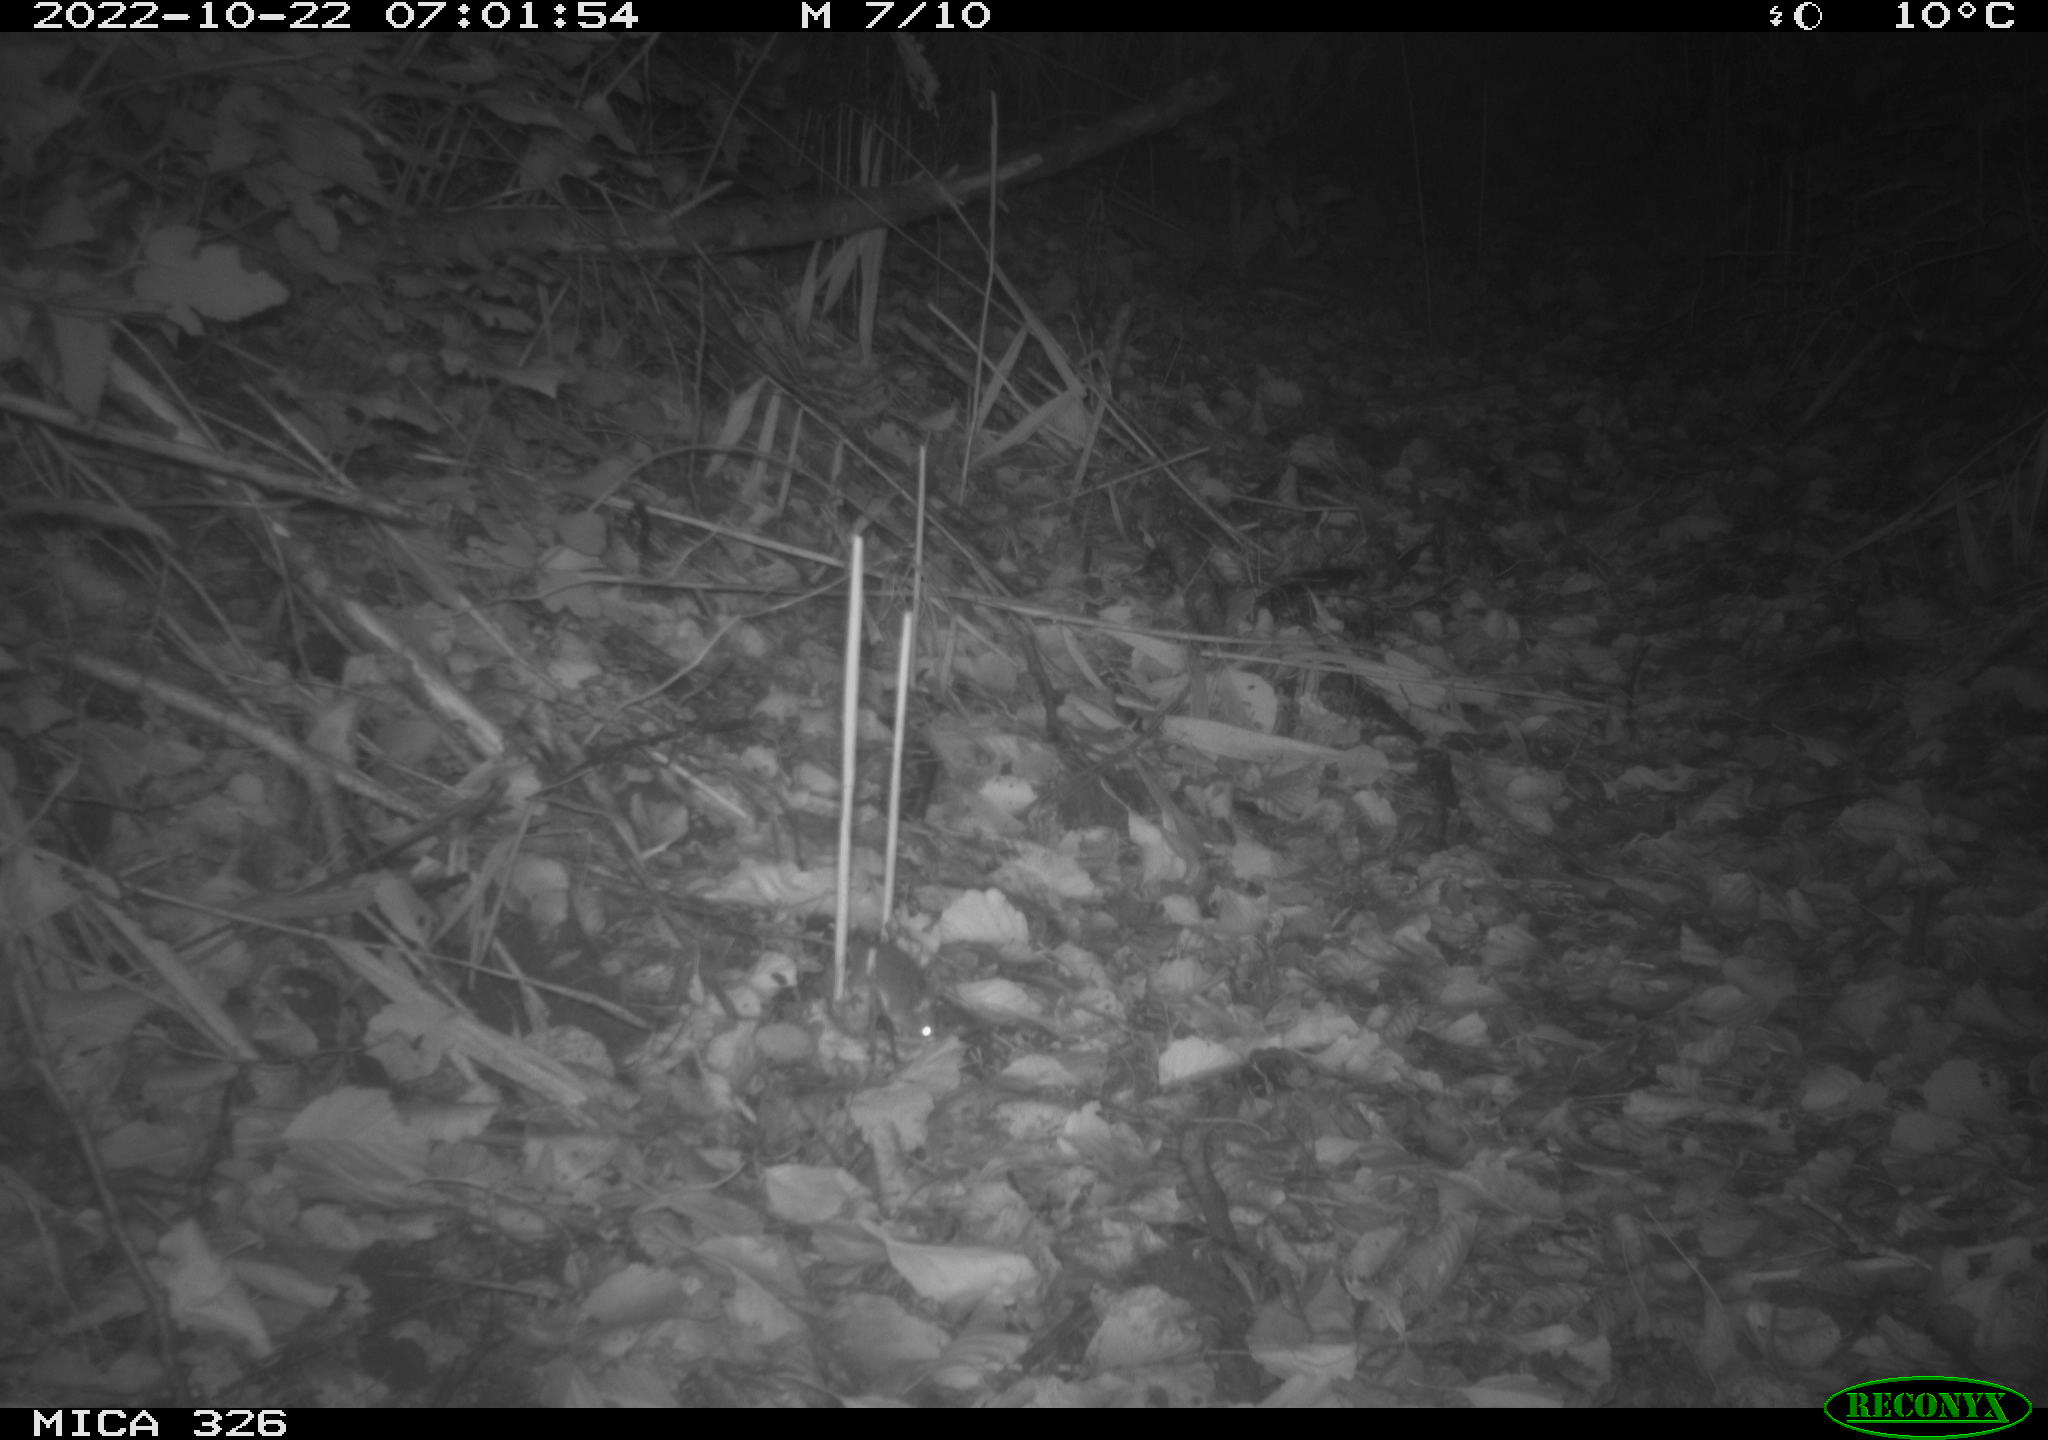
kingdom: Animalia
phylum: Chordata
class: Mammalia
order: Rodentia
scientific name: Rodentia
